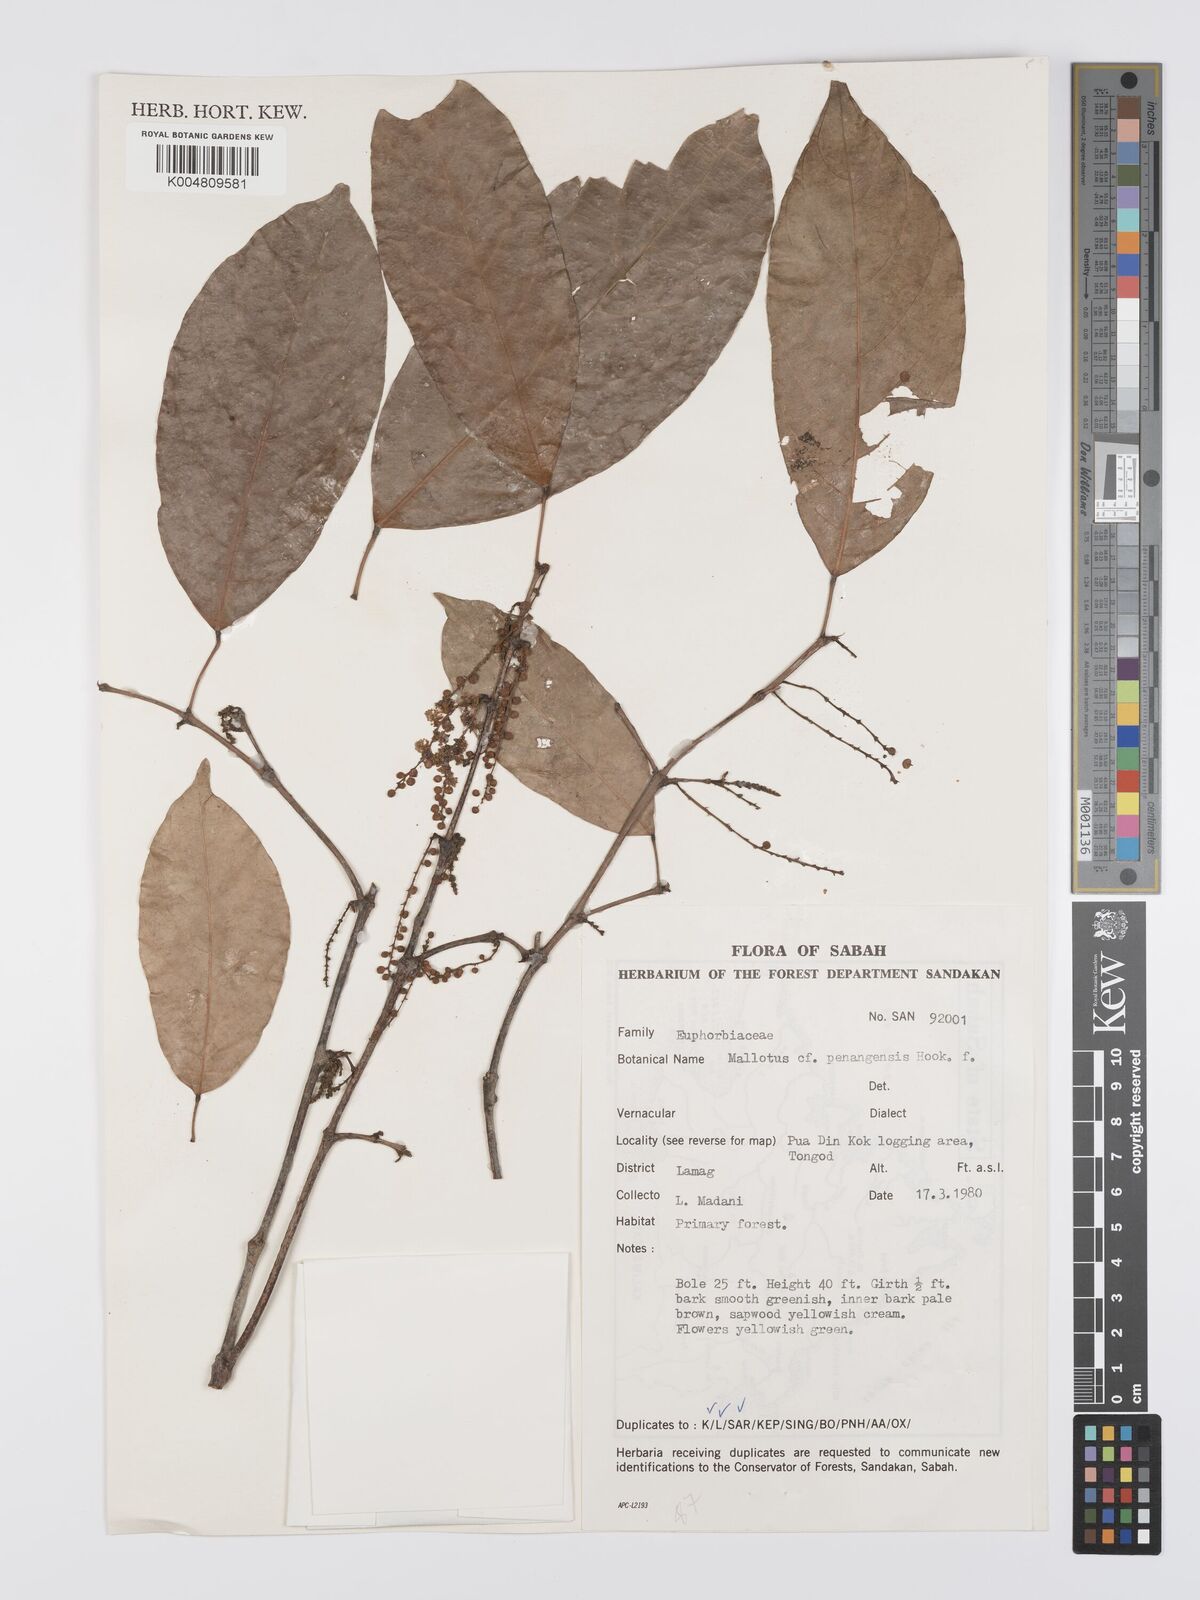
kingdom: Plantae
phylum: Tracheophyta
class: Magnoliopsida
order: Malpighiales
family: Euphorbiaceae
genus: Hancea
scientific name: Hancea penangensis
